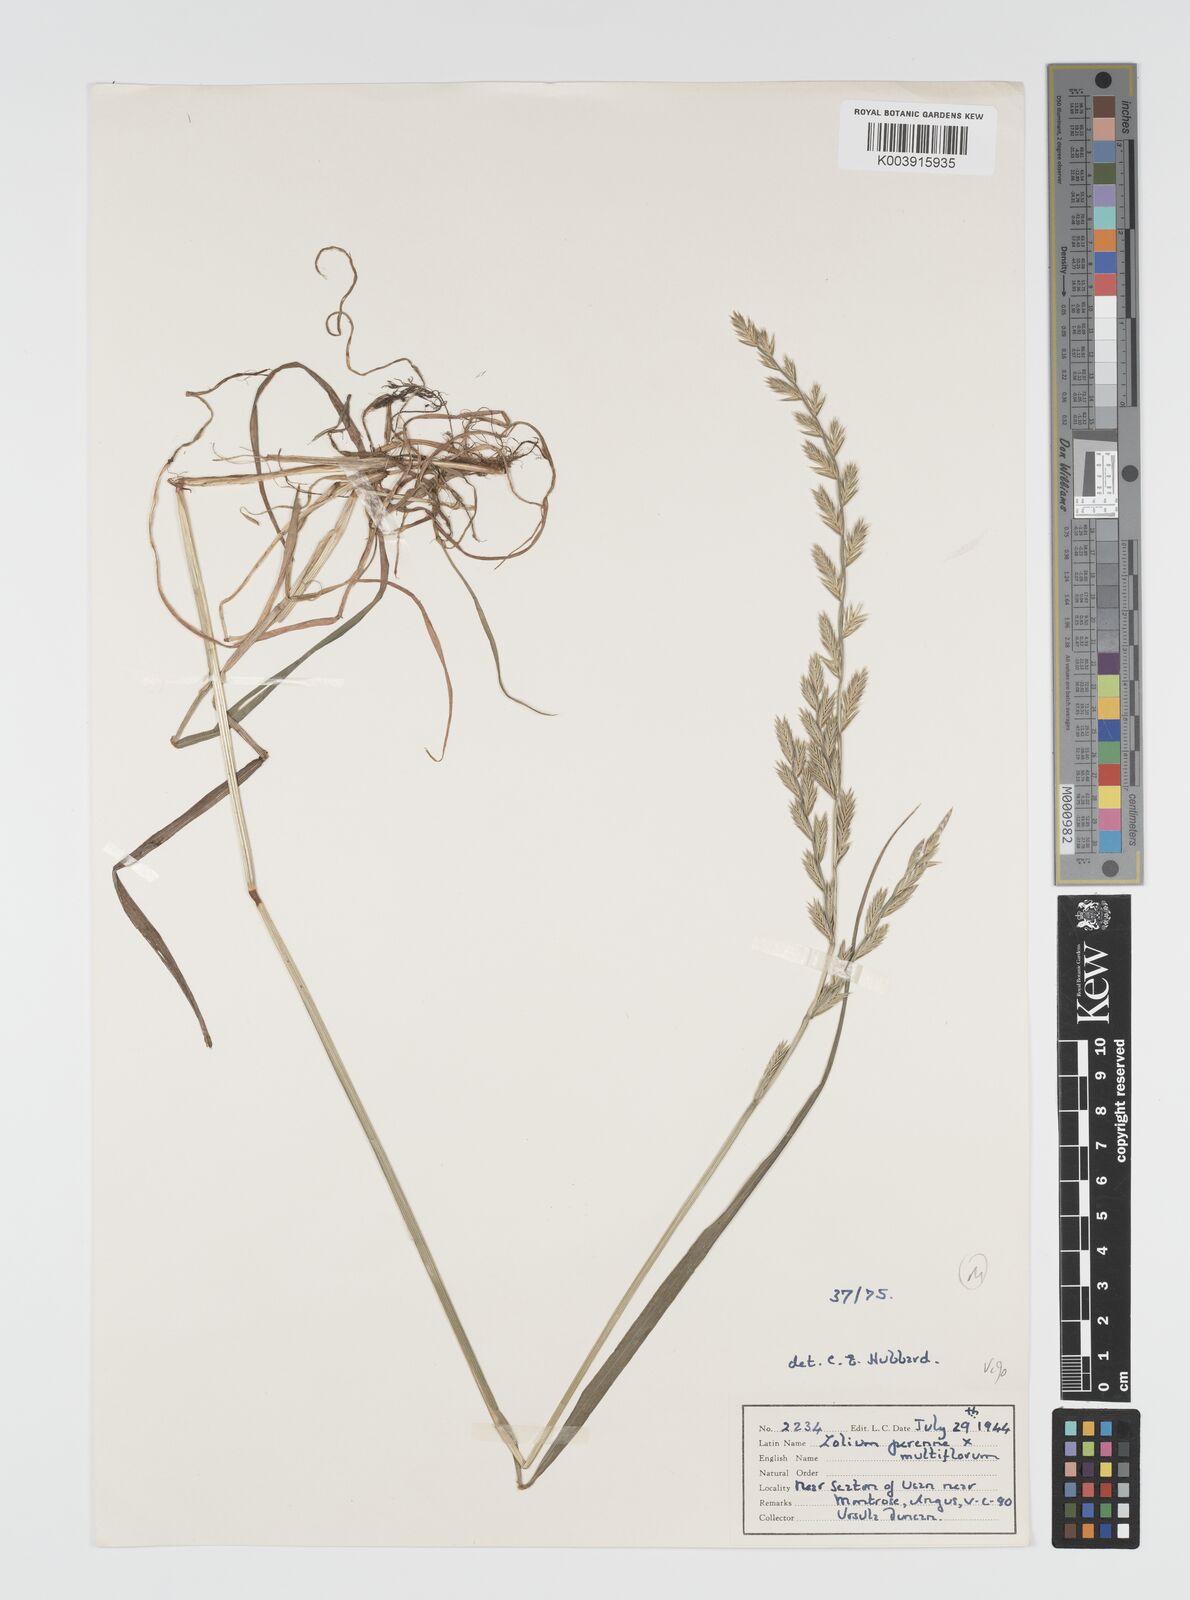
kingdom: Plantae
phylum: Tracheophyta
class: Liliopsida
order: Poales
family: Poaceae
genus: Lolium
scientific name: Lolium multiflorum
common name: Annual ryegrass
